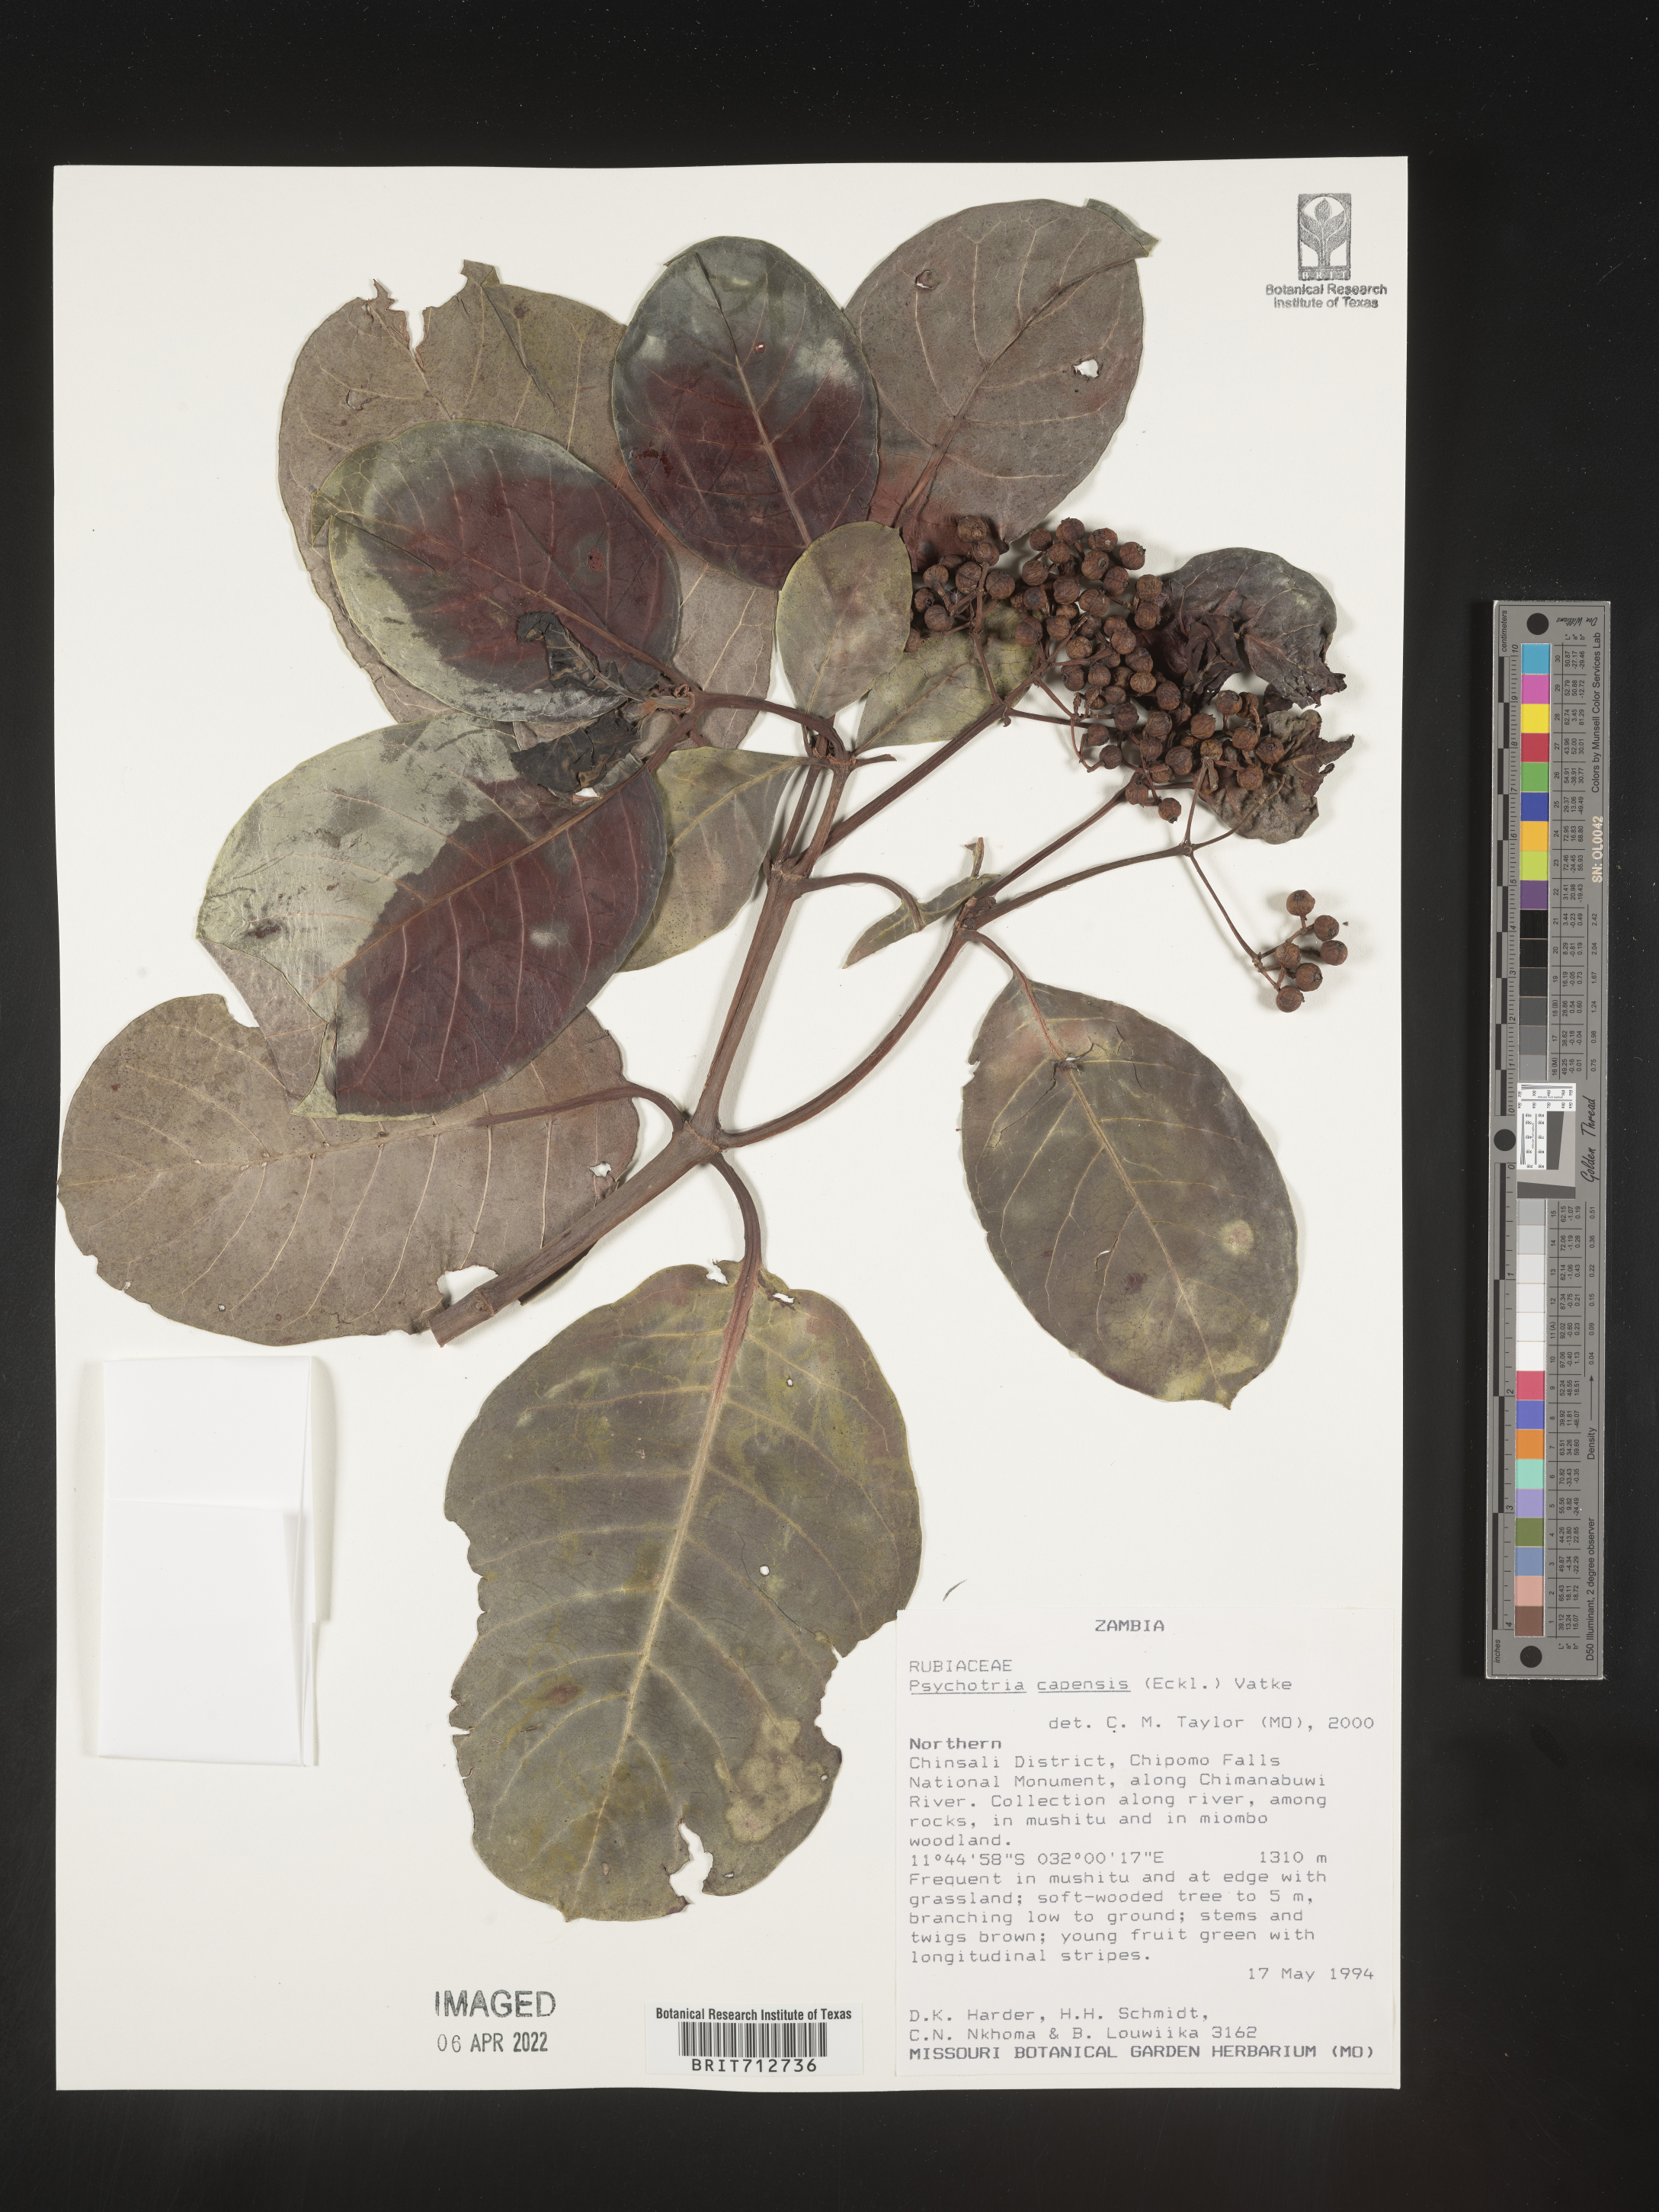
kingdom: Plantae
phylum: Tracheophyta
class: Magnoliopsida
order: Gentianales
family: Rubiaceae
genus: Psychotria
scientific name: Psychotria capensis
